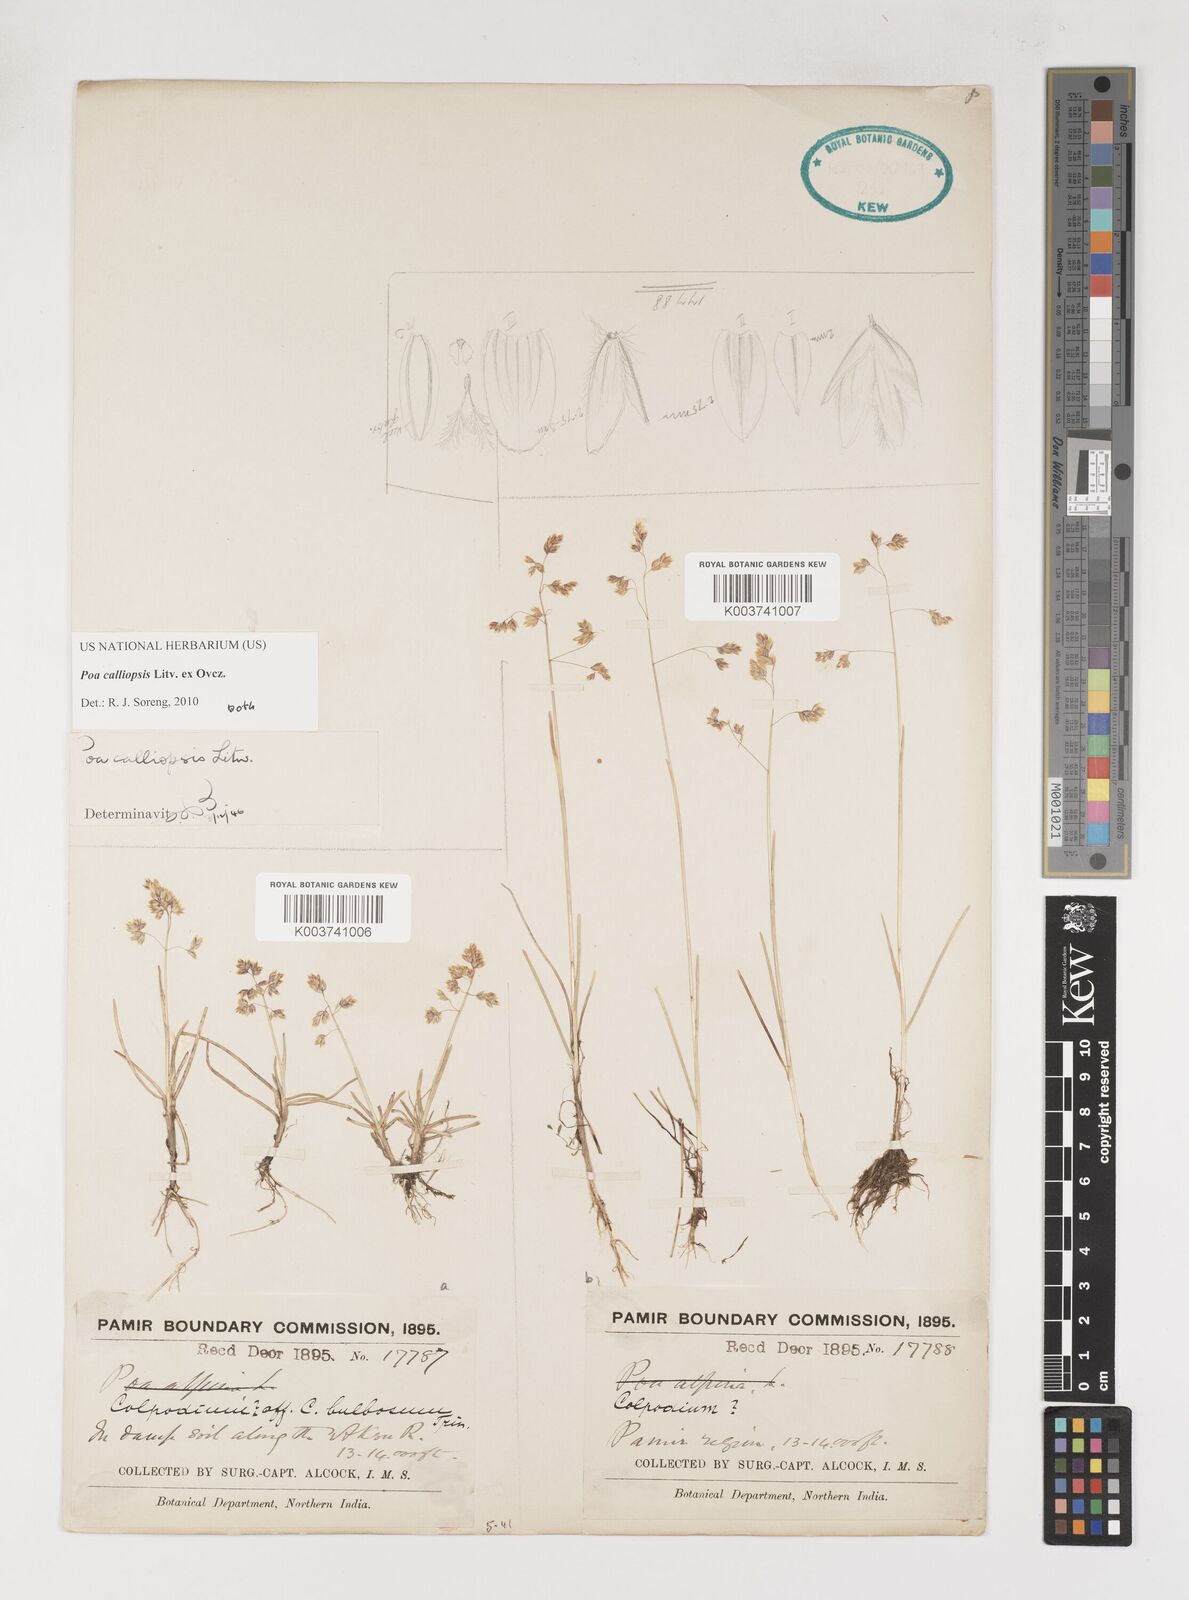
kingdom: Plantae
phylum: Tracheophyta
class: Liliopsida
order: Poales
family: Poaceae
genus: Poa
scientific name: Poa calliopsis
